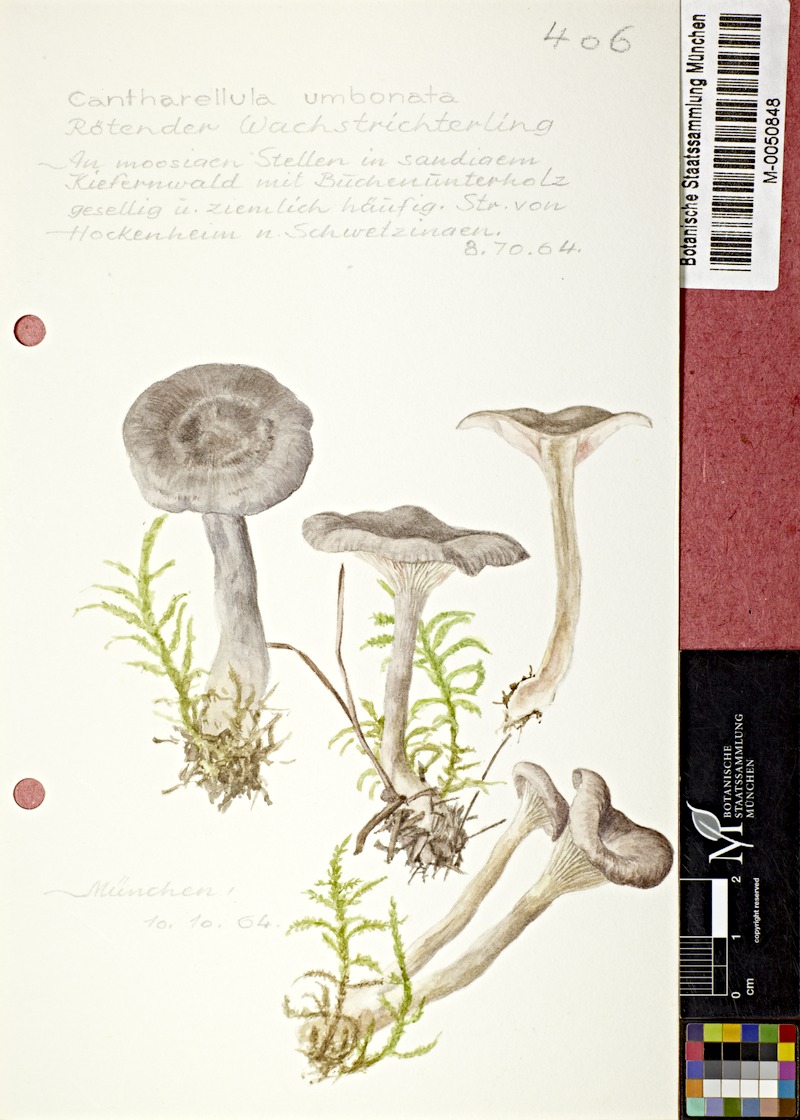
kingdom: Fungi
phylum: Basidiomycota
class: Agaricomycetes
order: Agaricales
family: Hygrophoraceae
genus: Cantharellula
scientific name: Cantharellula umbonata
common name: The humpback
